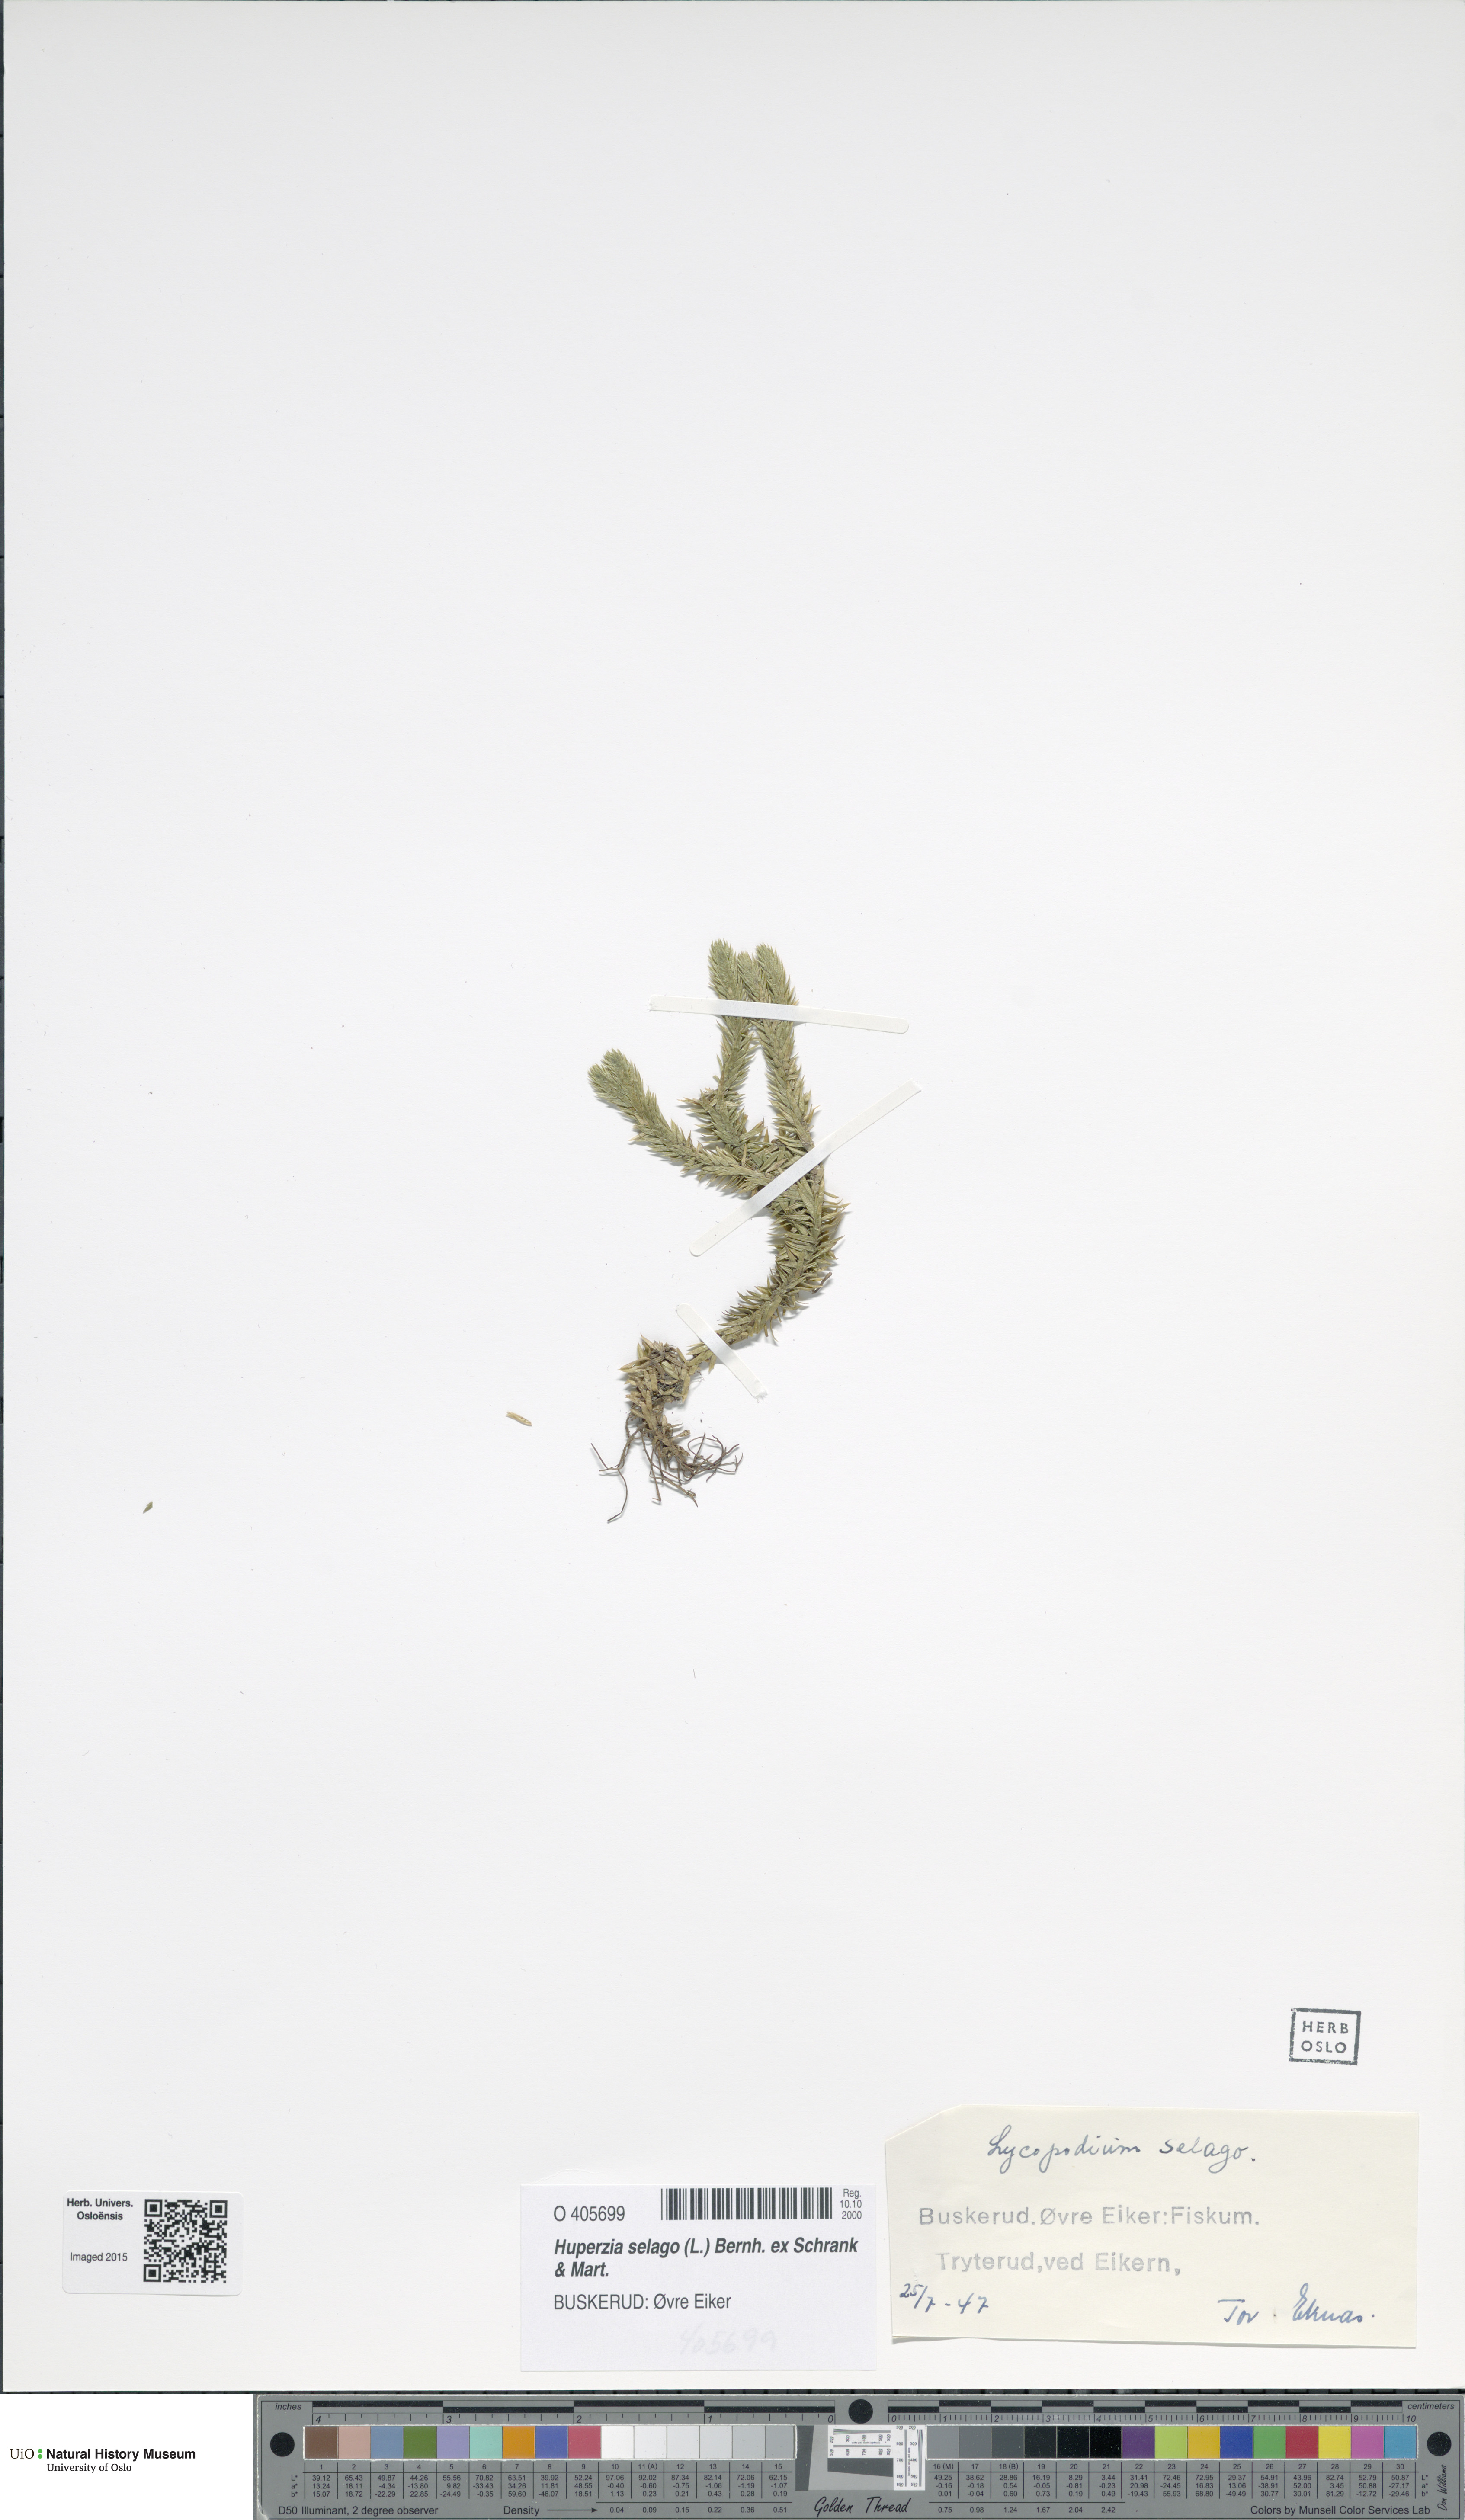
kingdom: Plantae
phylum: Tracheophyta
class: Lycopodiopsida
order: Lycopodiales
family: Lycopodiaceae
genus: Huperzia
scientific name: Huperzia selago
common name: Northern firmoss
